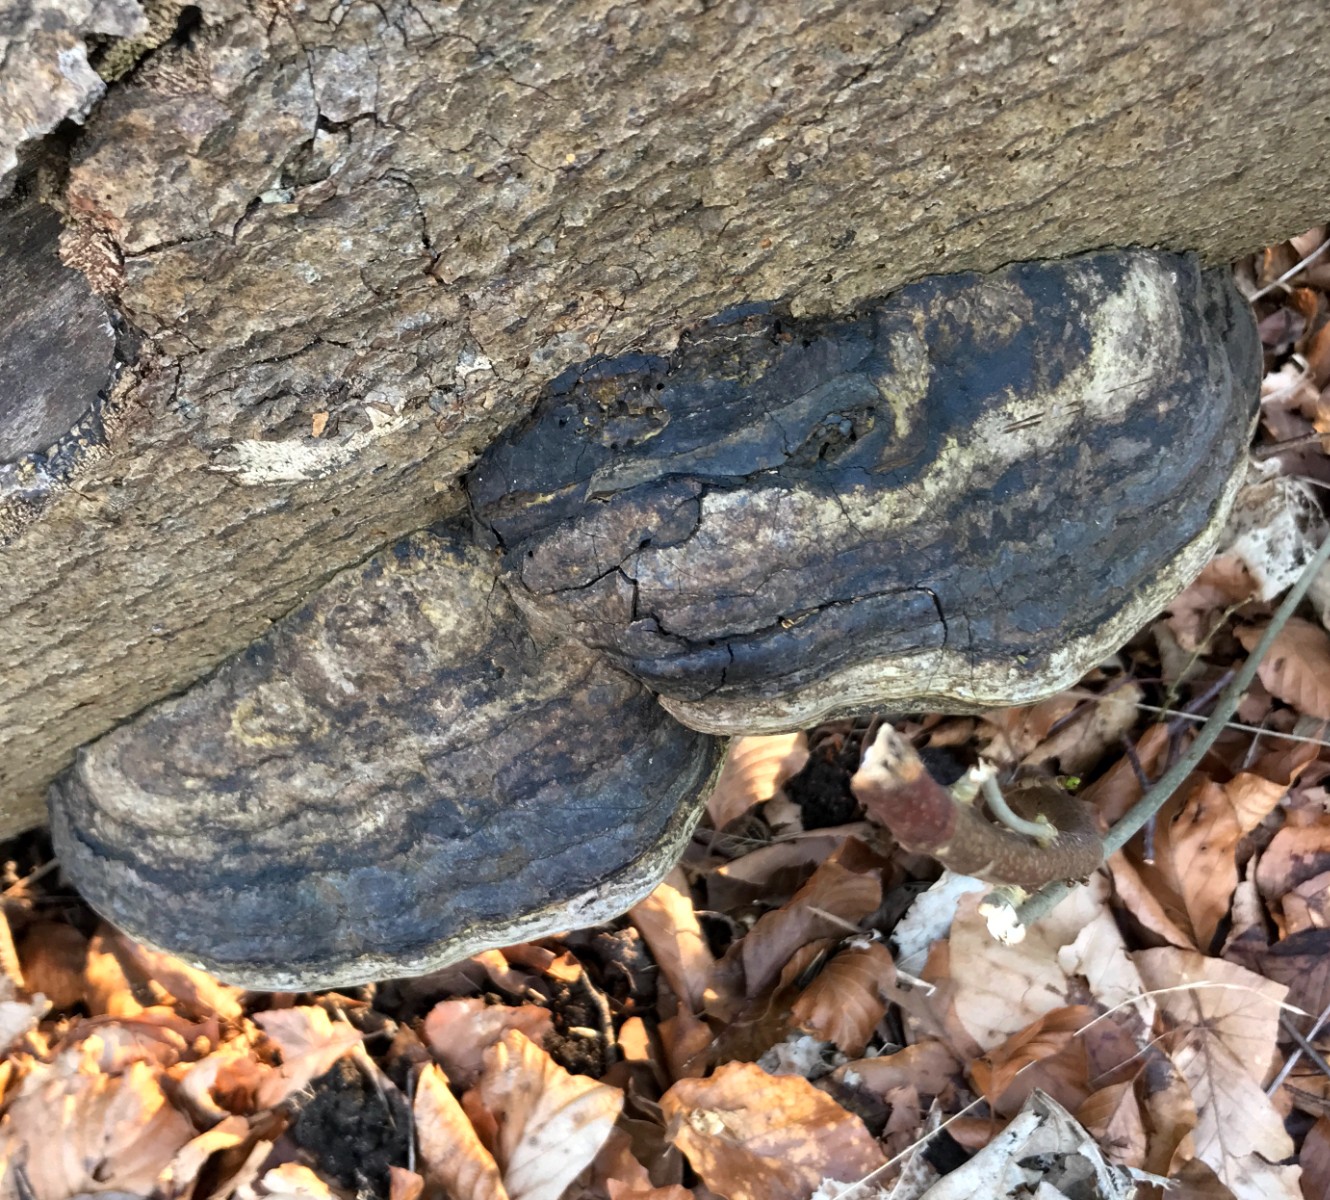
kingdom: Fungi
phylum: Basidiomycota
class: Agaricomycetes
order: Polyporales
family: Polyporaceae
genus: Fomes
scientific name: Fomes fomentarius
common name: tøndersvamp
